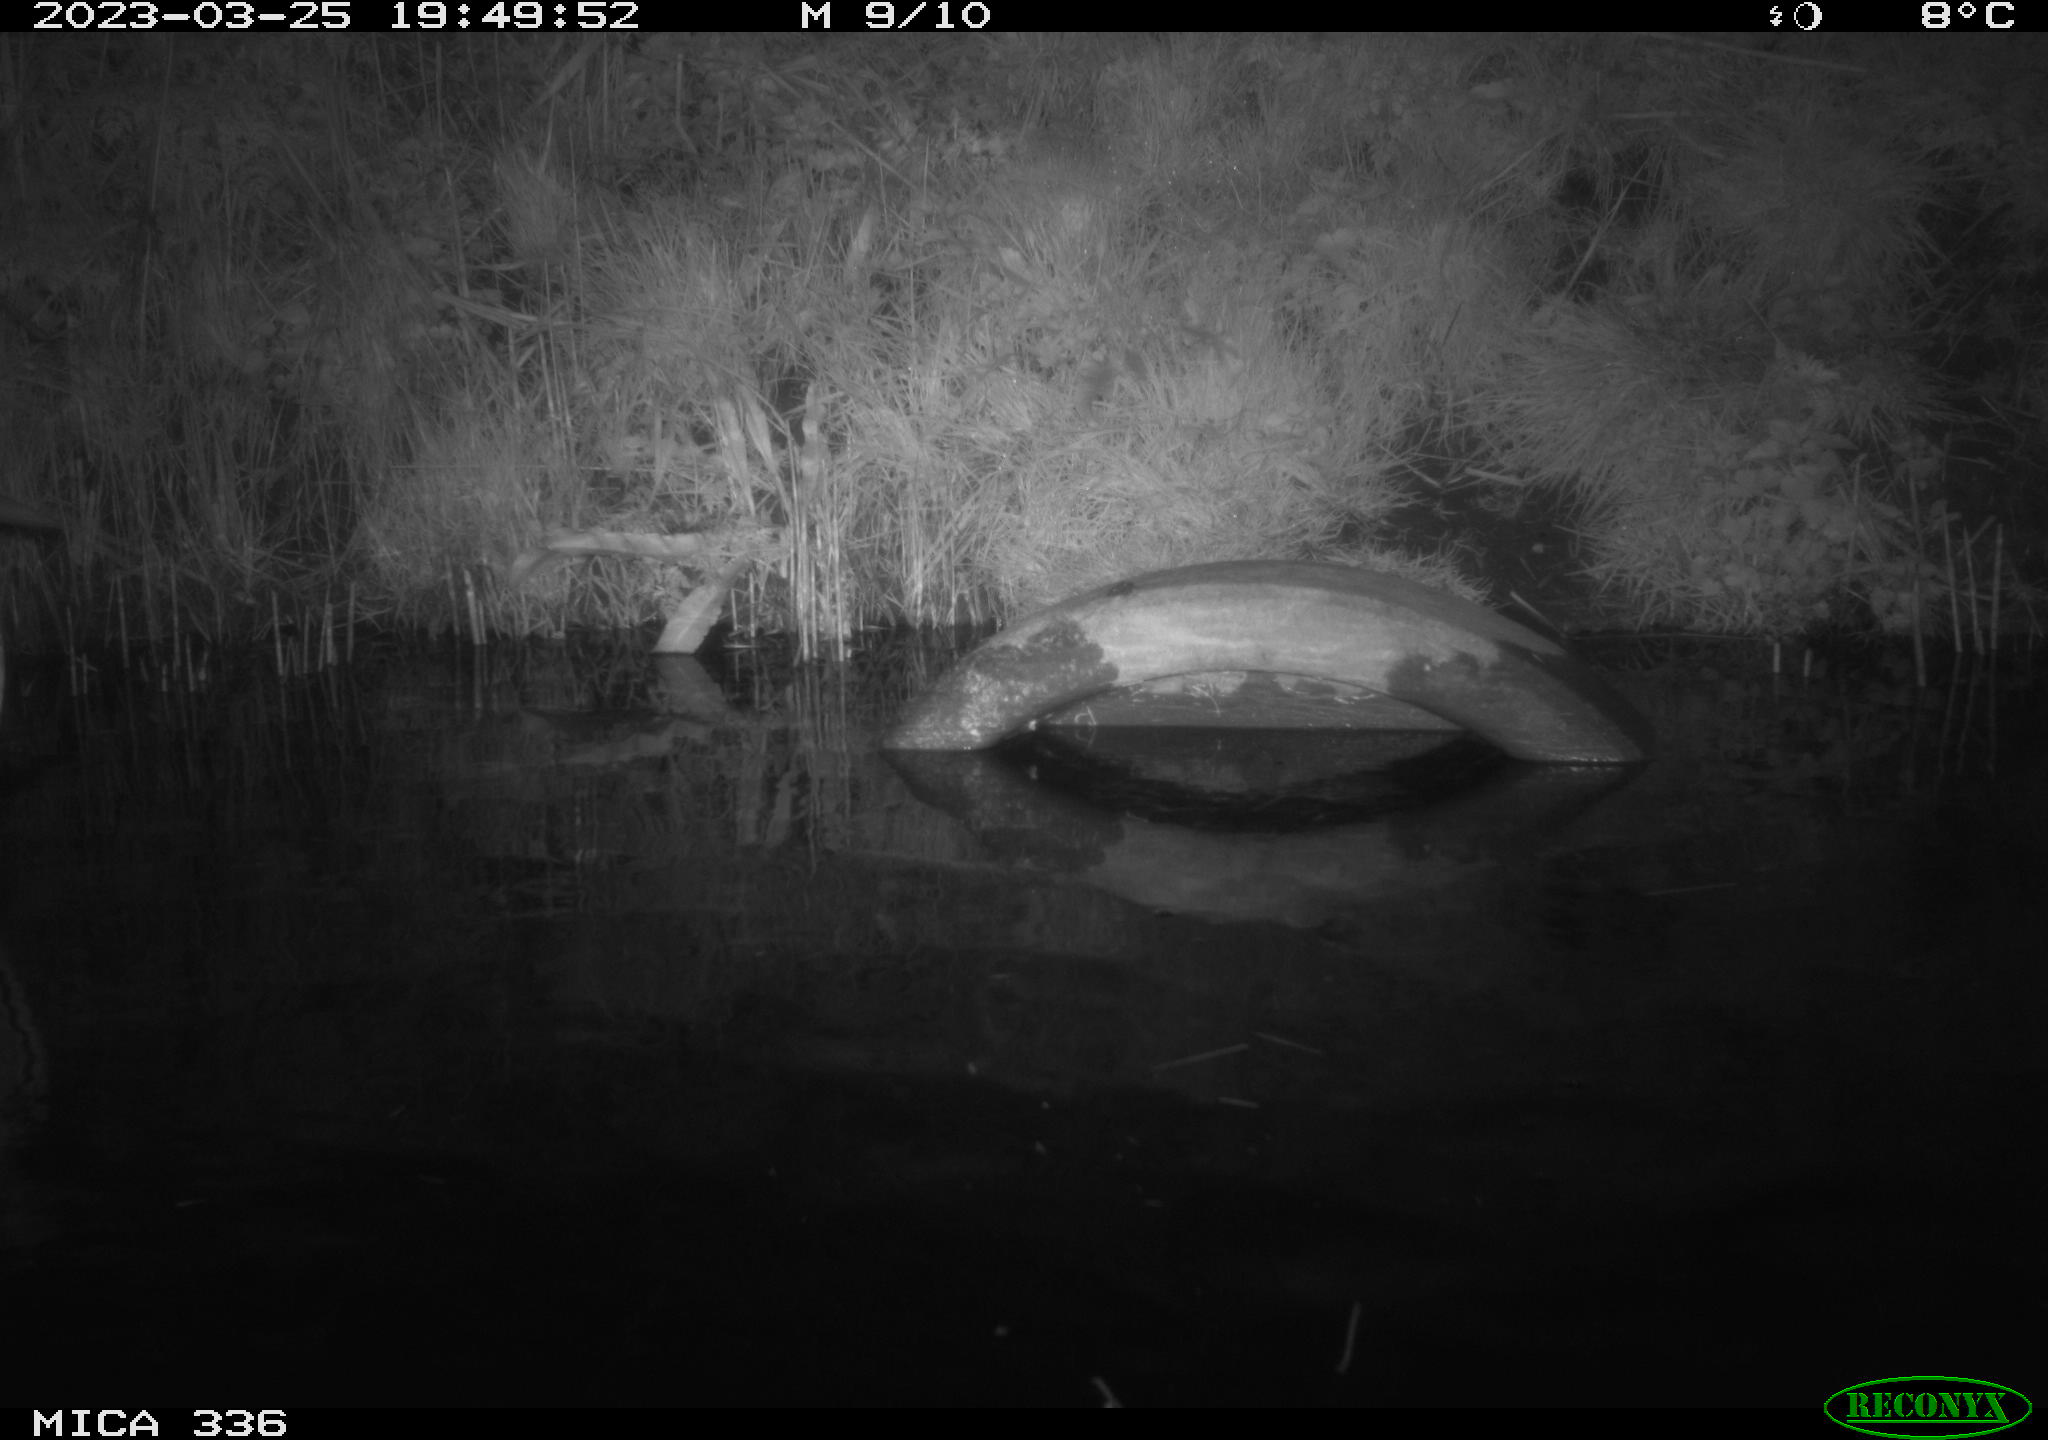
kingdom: Animalia
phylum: Chordata
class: Aves
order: Pelecaniformes
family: Ardeidae
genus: Ardea
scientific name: Ardea cinerea
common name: Grey heron
